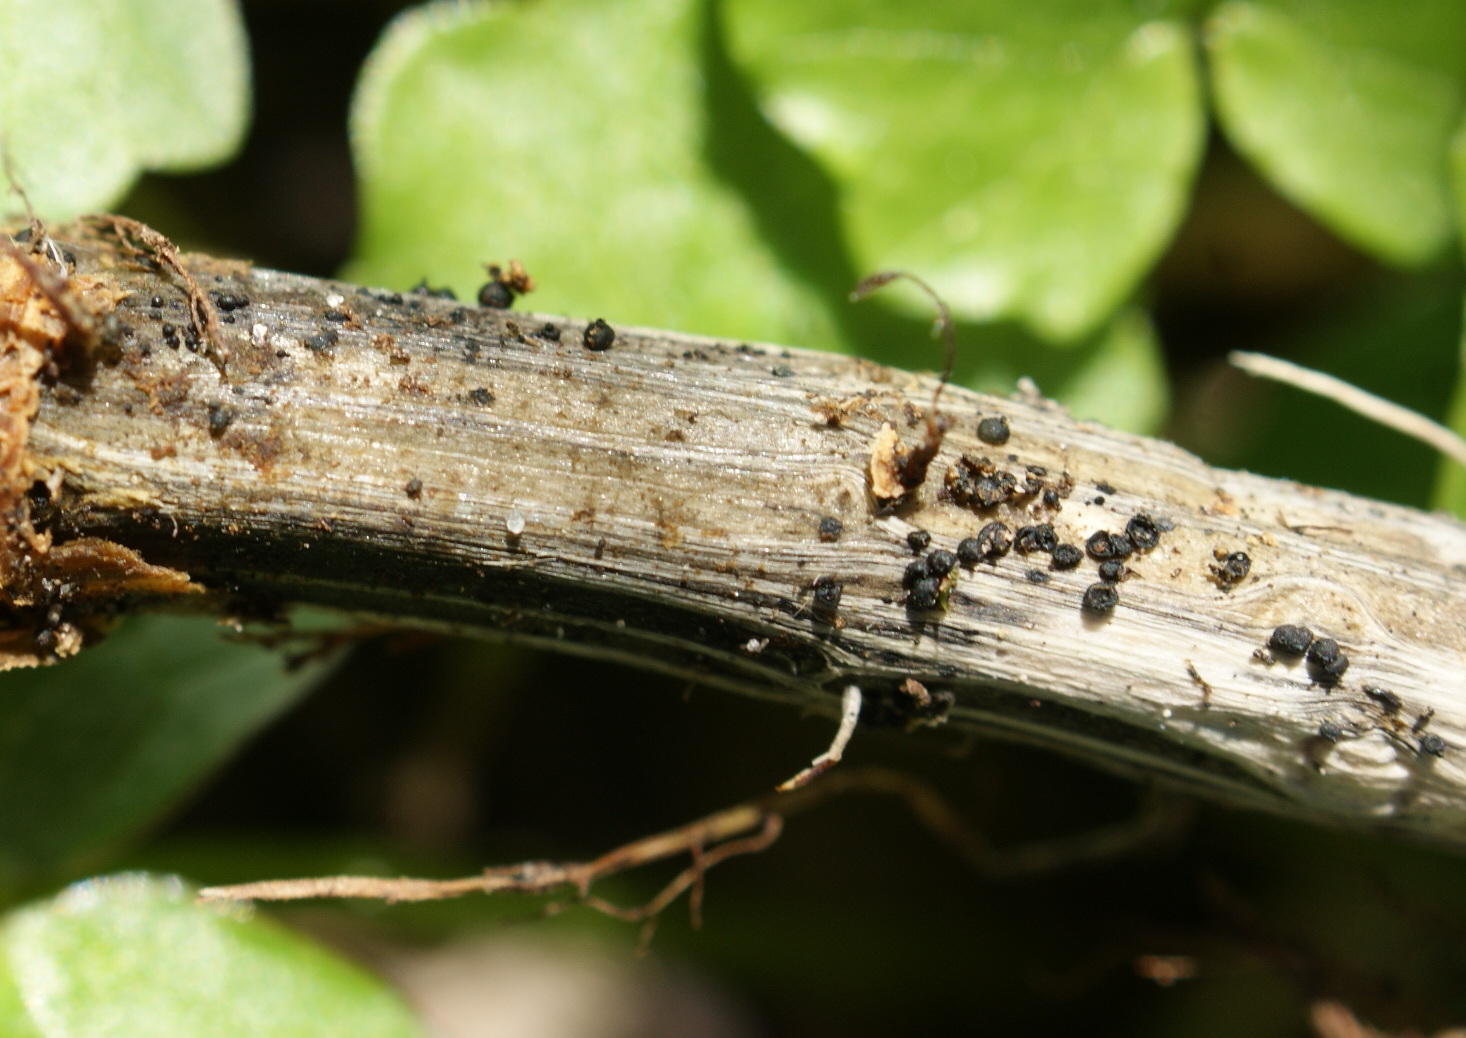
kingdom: Fungi
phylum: Ascomycota
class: Dothideomycetes
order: Pleosporales
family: Leptosphaeriaceae
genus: Leptosphaeria
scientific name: Leptosphaeria acuta
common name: spids kulkegle
